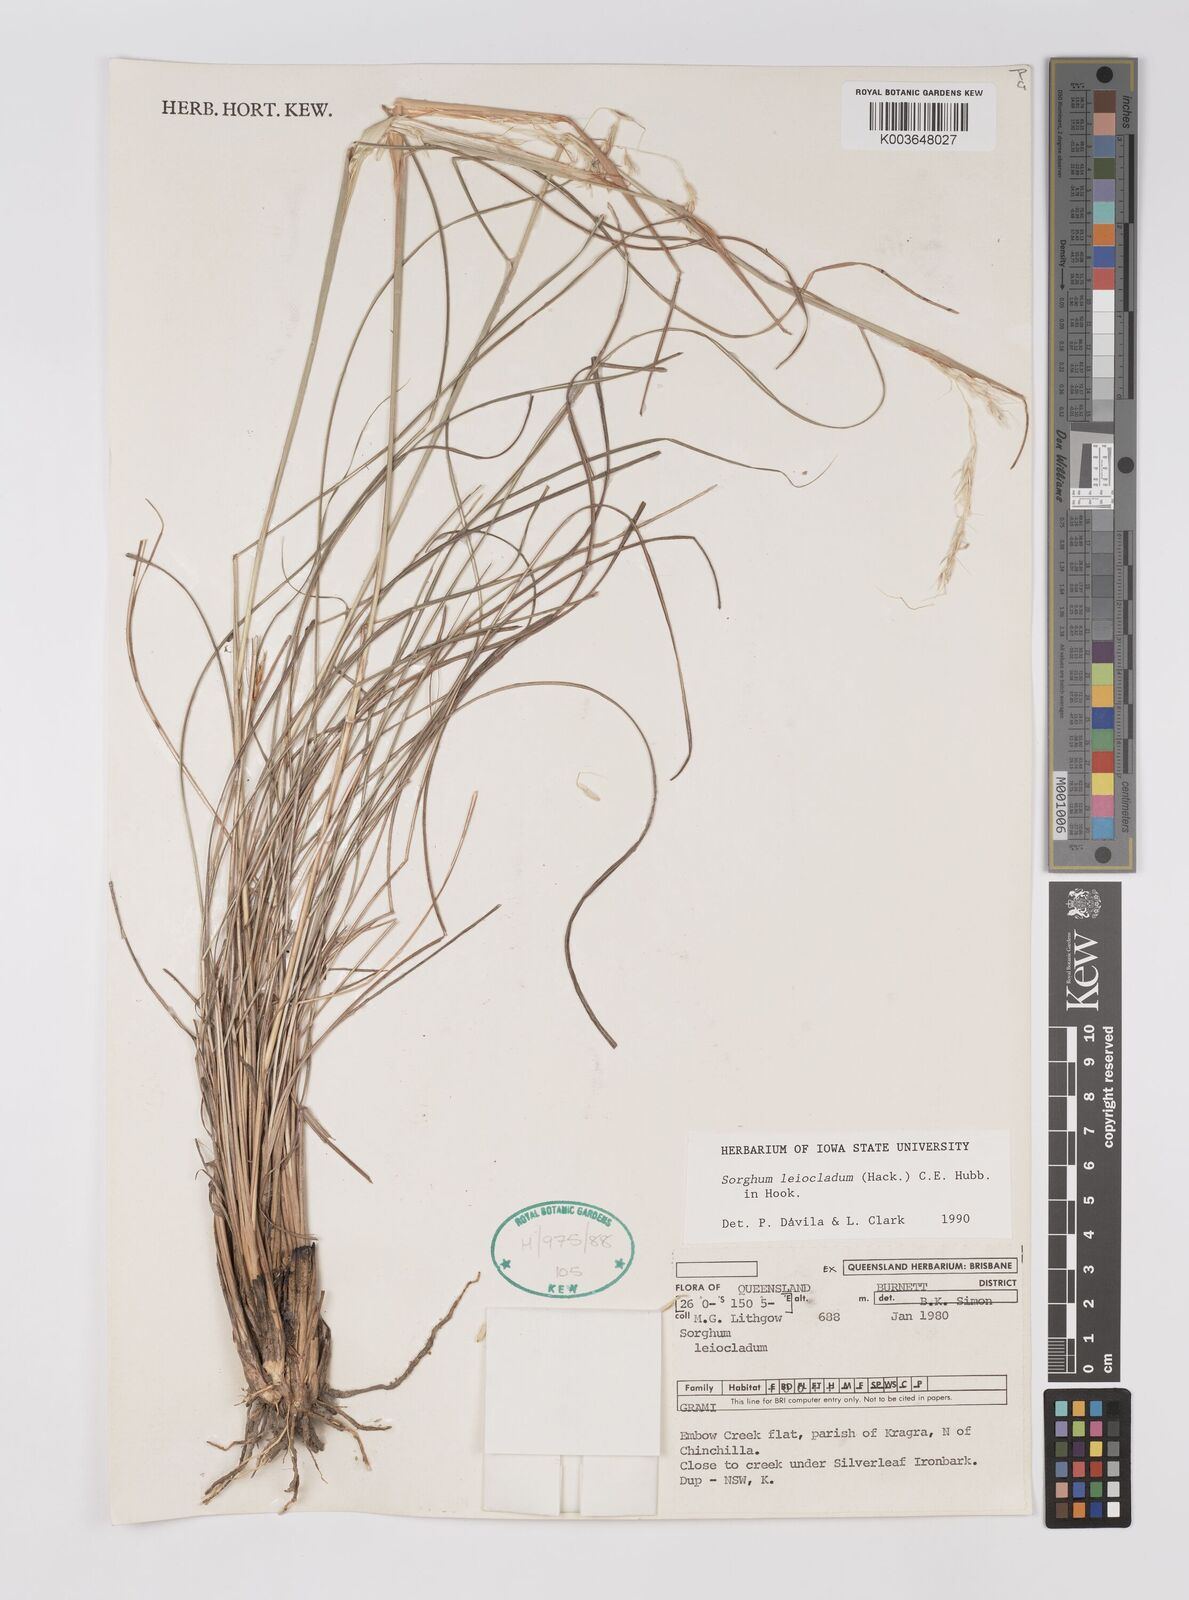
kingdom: Plantae
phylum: Tracheophyta
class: Liliopsida
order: Poales
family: Poaceae
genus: Sarga
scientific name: Sarga leioclada
